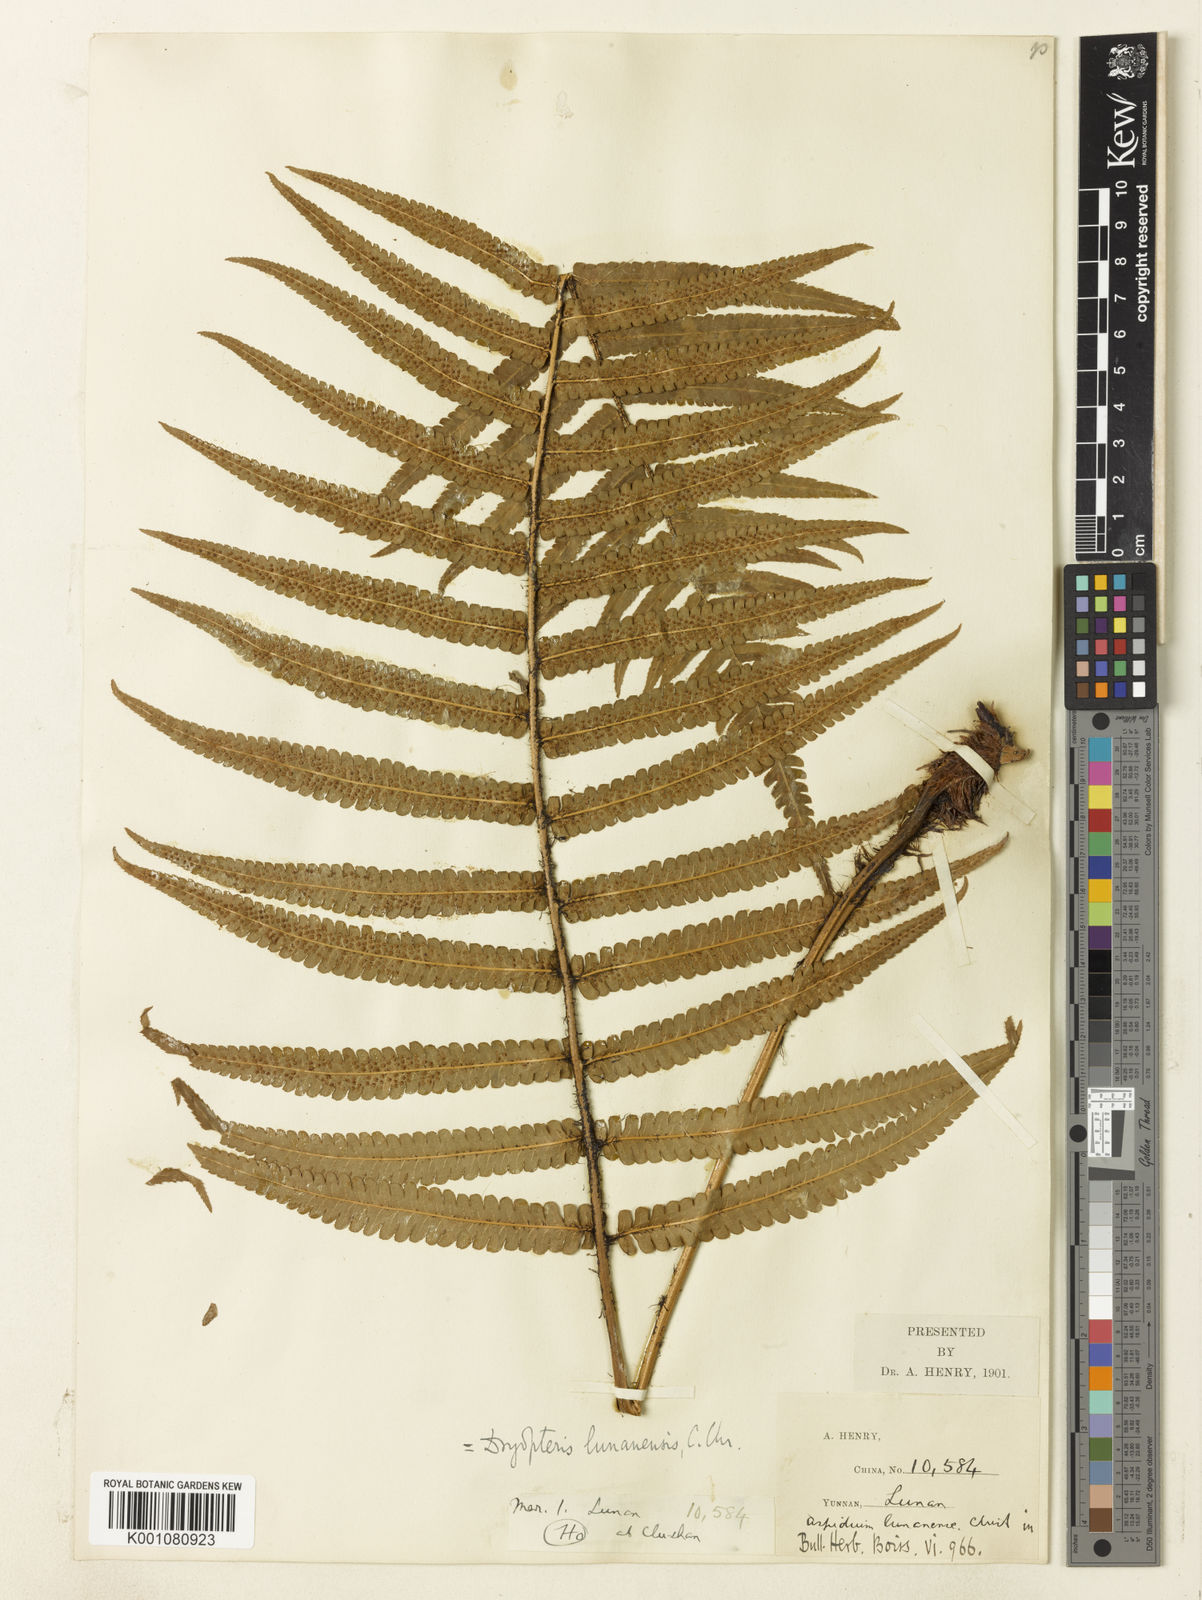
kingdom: Plantae
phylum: Tracheophyta
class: Polypodiopsida
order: Polypodiales
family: Dryopteridaceae
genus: Dryopteris
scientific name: Dryopteris lunanensis
